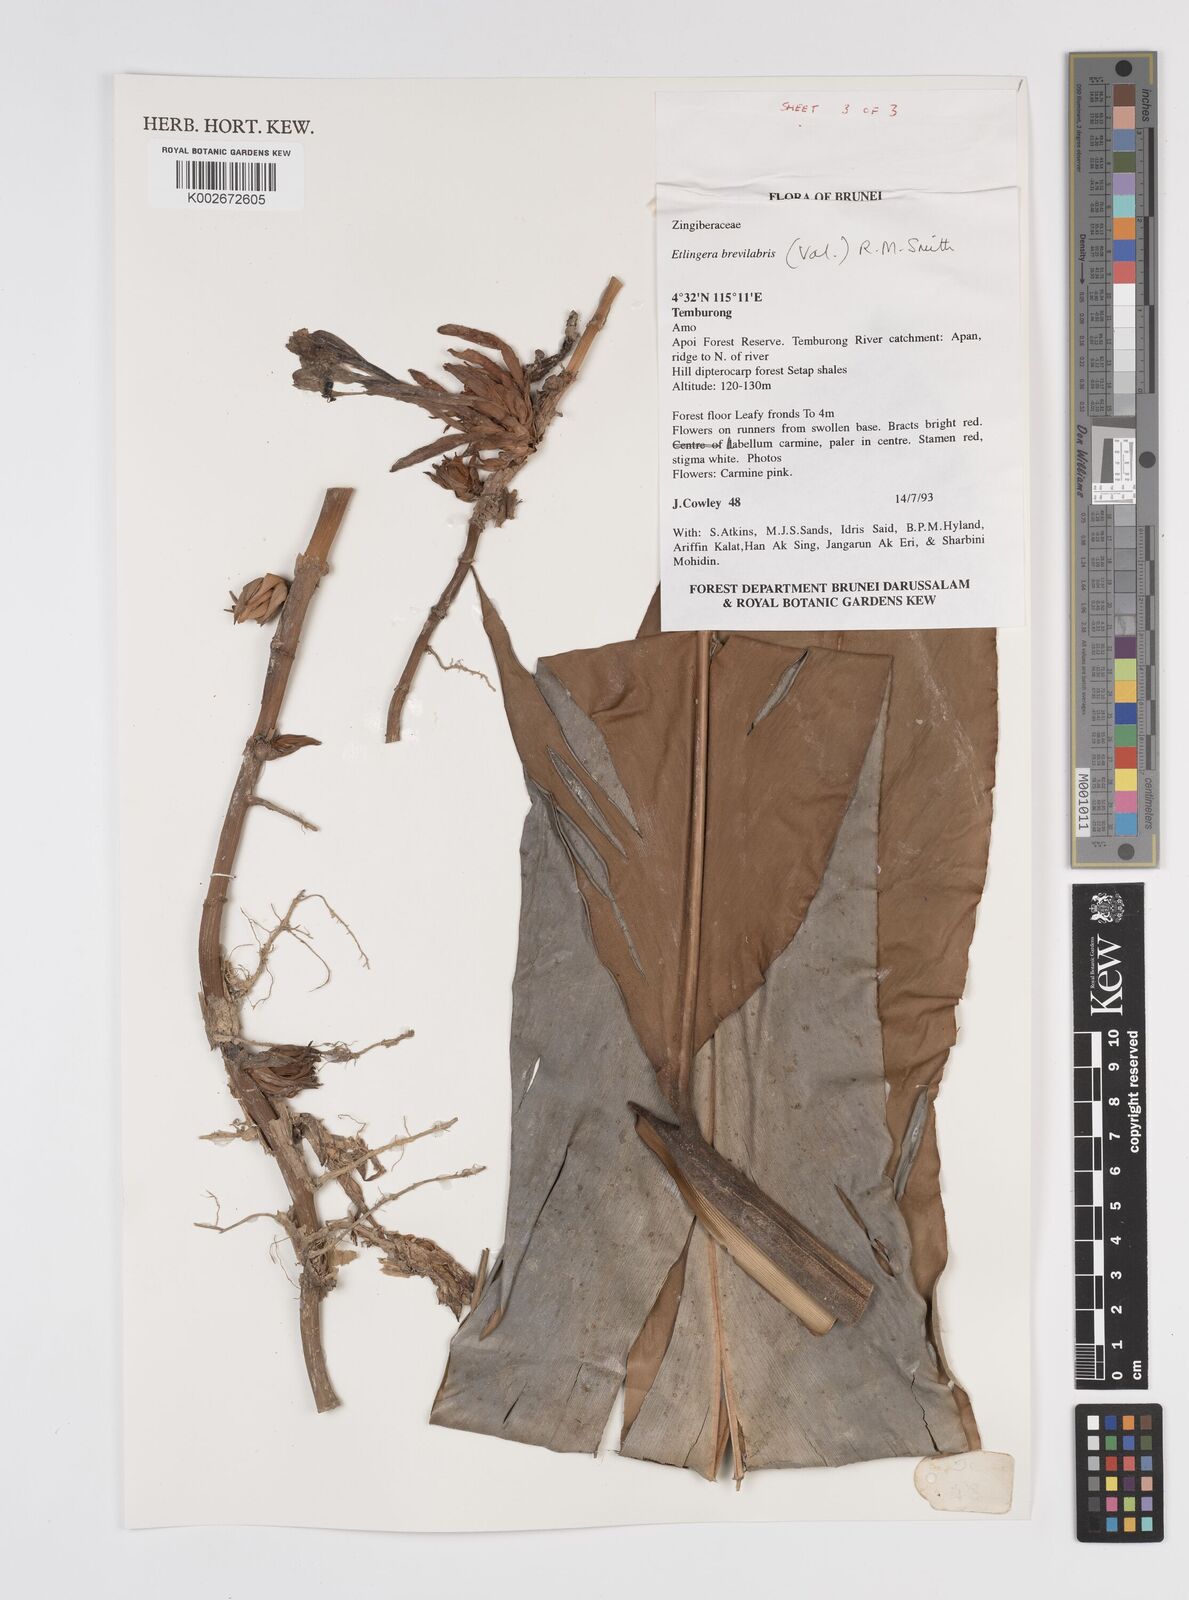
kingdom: Plantae
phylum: Tracheophyta
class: Liliopsida
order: Zingiberales
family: Zingiberaceae
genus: Etlingera
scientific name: Etlingera
